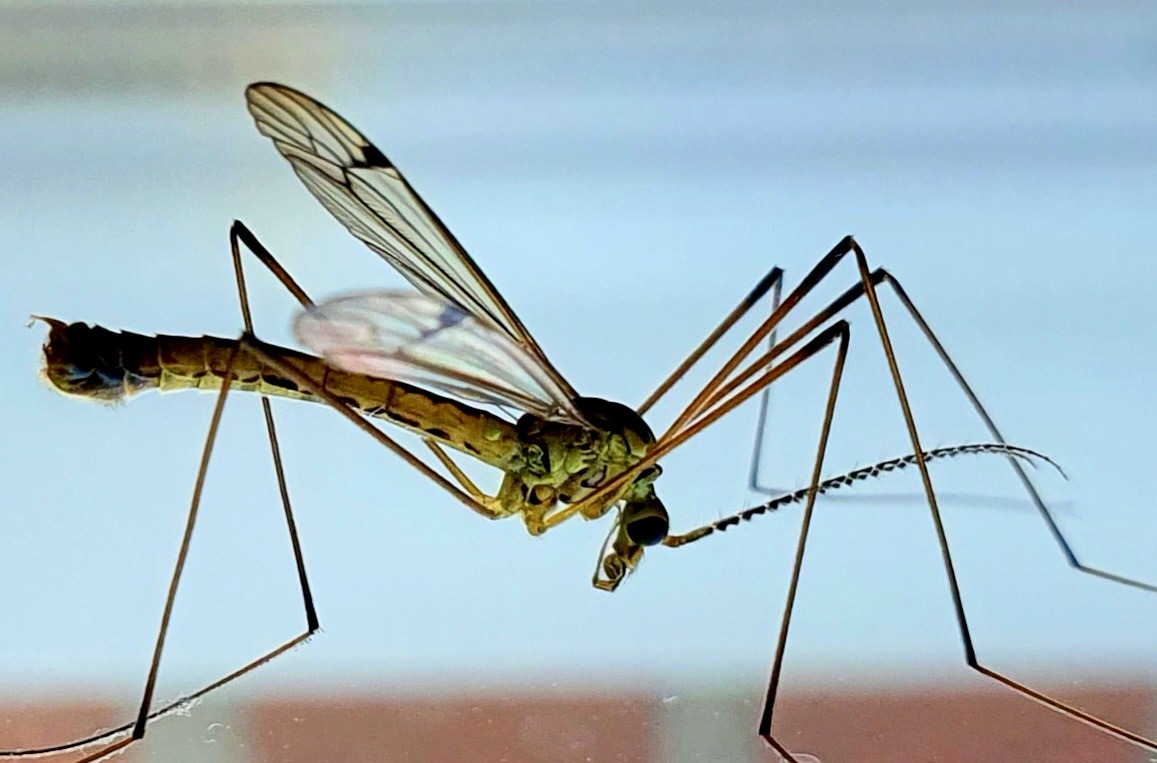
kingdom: Animalia
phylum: Arthropoda
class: Insecta
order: Diptera
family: Tipulidae
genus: Nephrotoma
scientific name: Nephrotoma dorsalis
